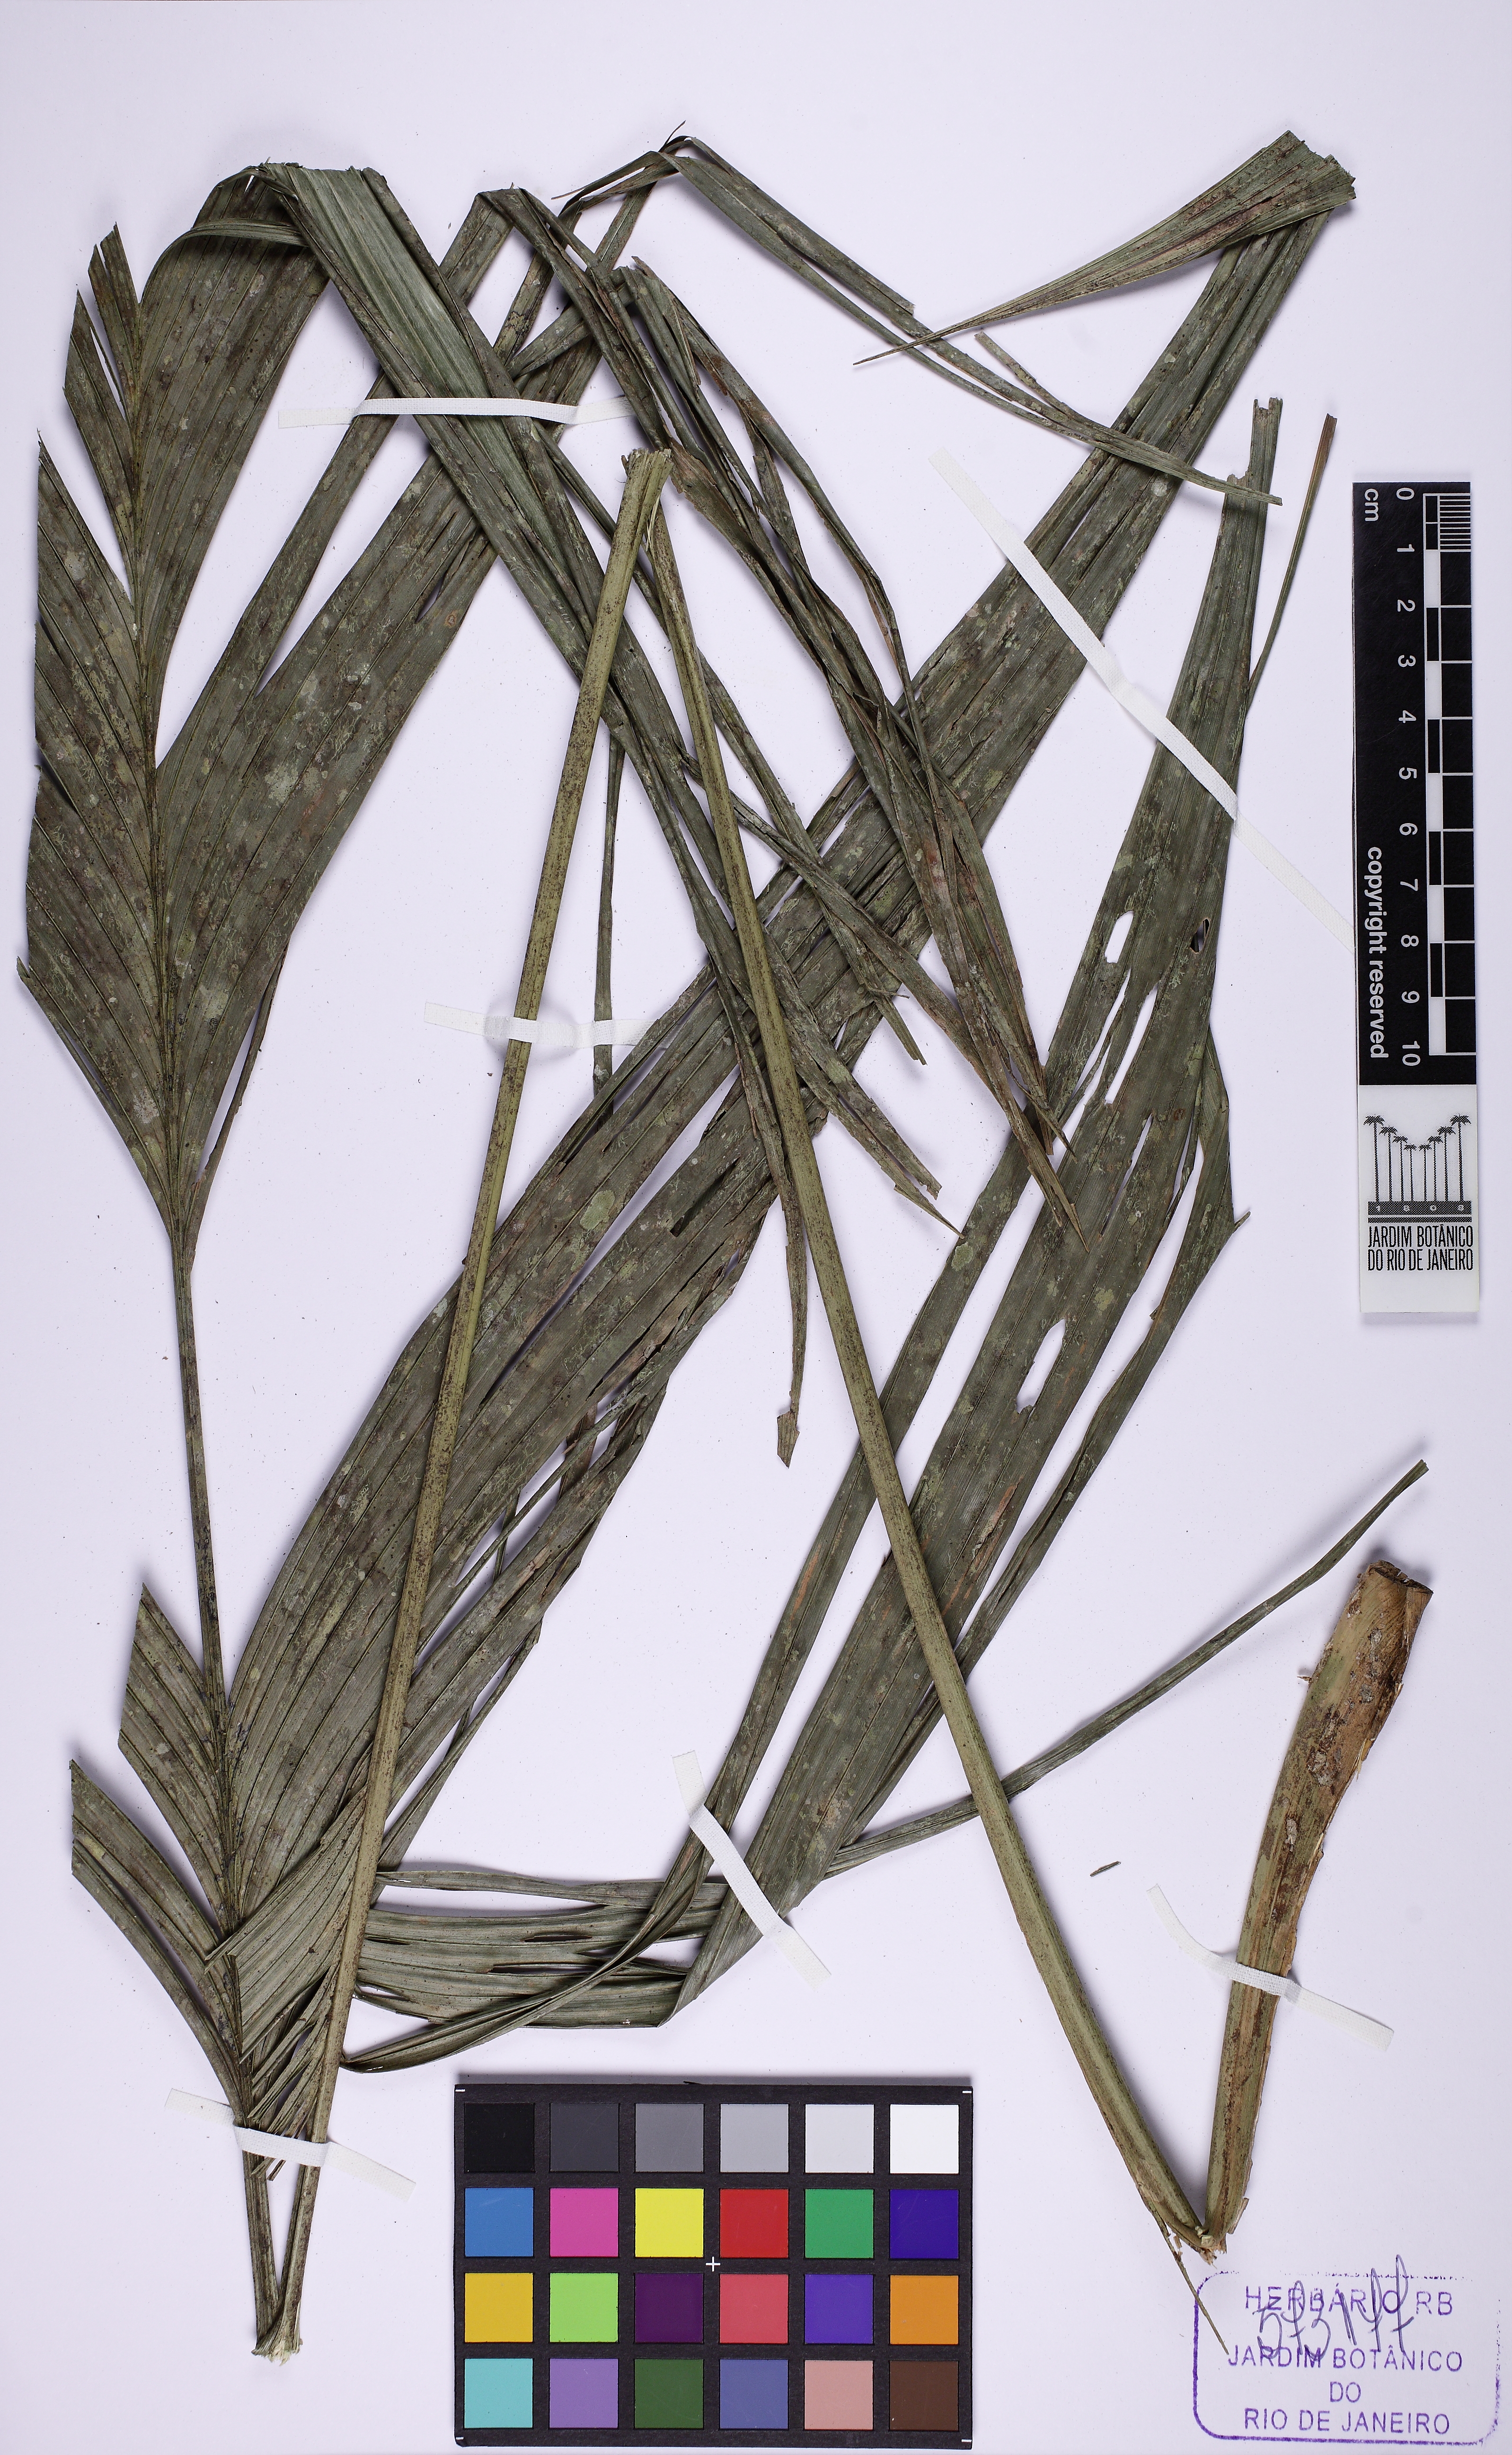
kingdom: Plantae
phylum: Tracheophyta
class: Liliopsida
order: Arecales
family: Arecaceae
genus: Geonoma
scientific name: Geonoma rubescens
